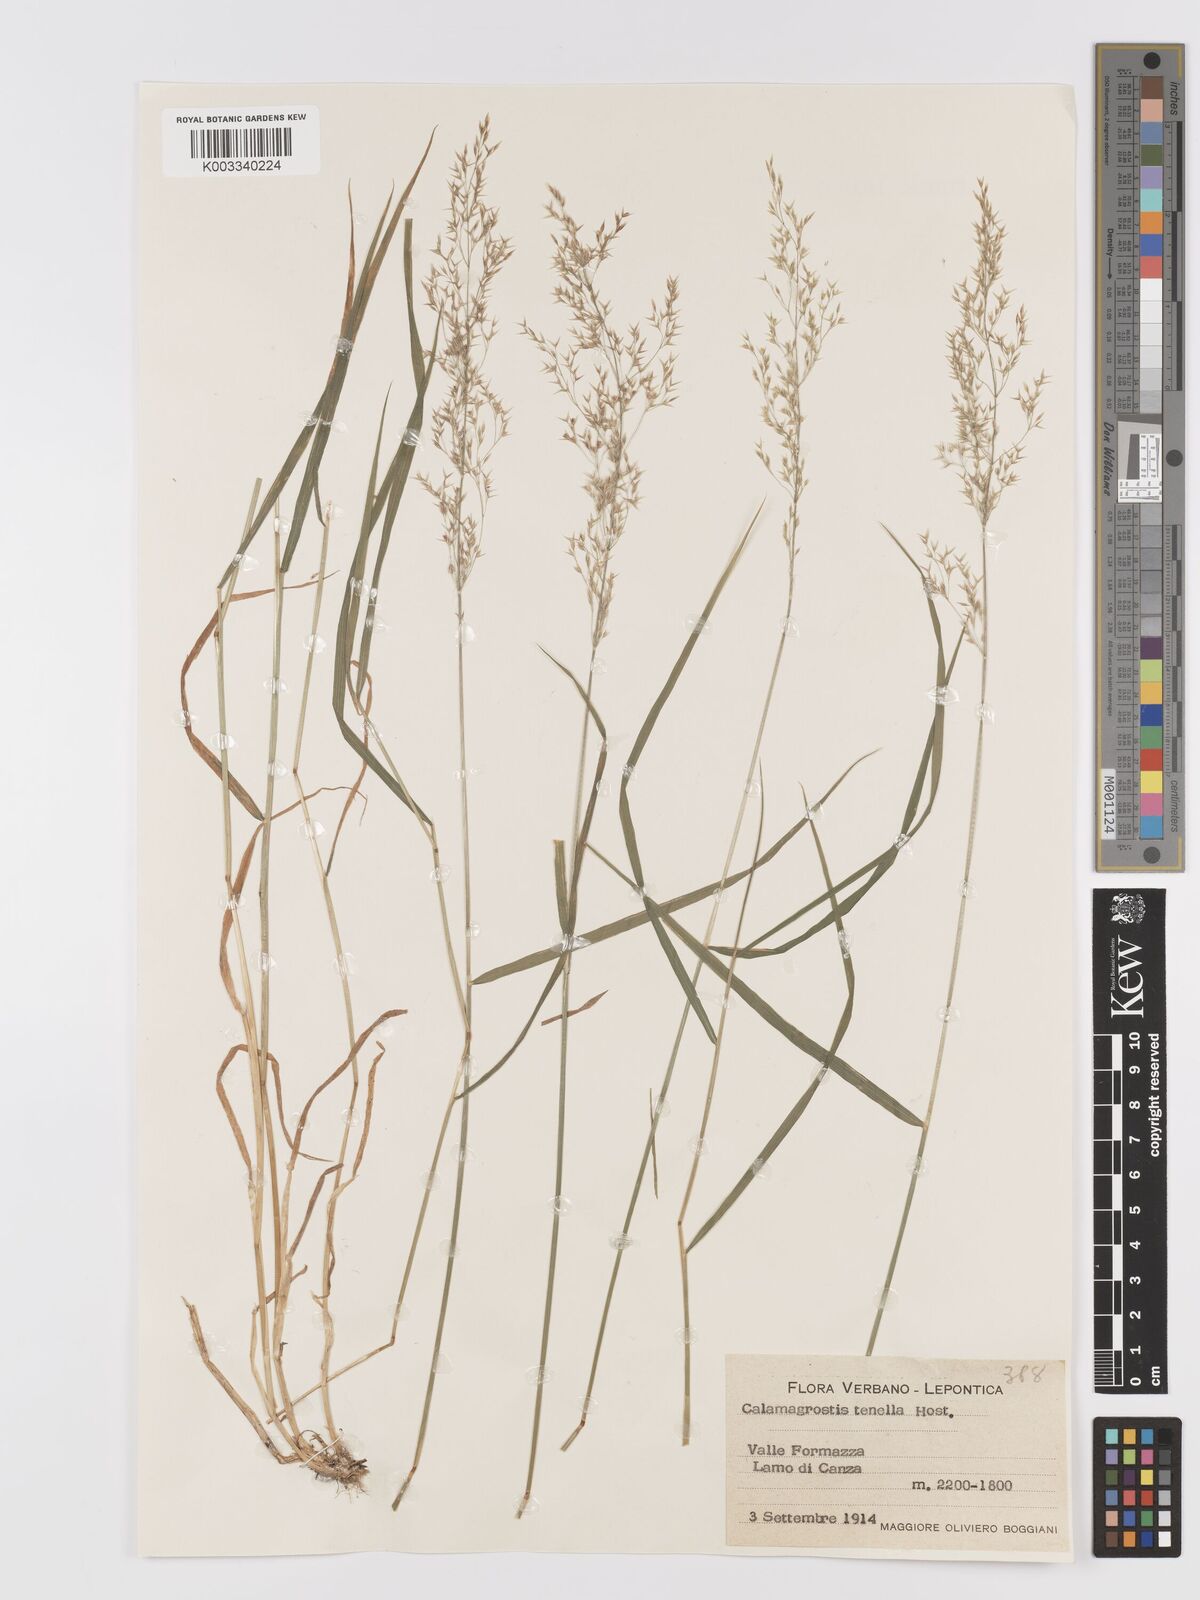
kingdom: Plantae
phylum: Tracheophyta
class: Liliopsida
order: Poales
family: Poaceae
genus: Agrostis
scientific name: Agrostis schraderiana
